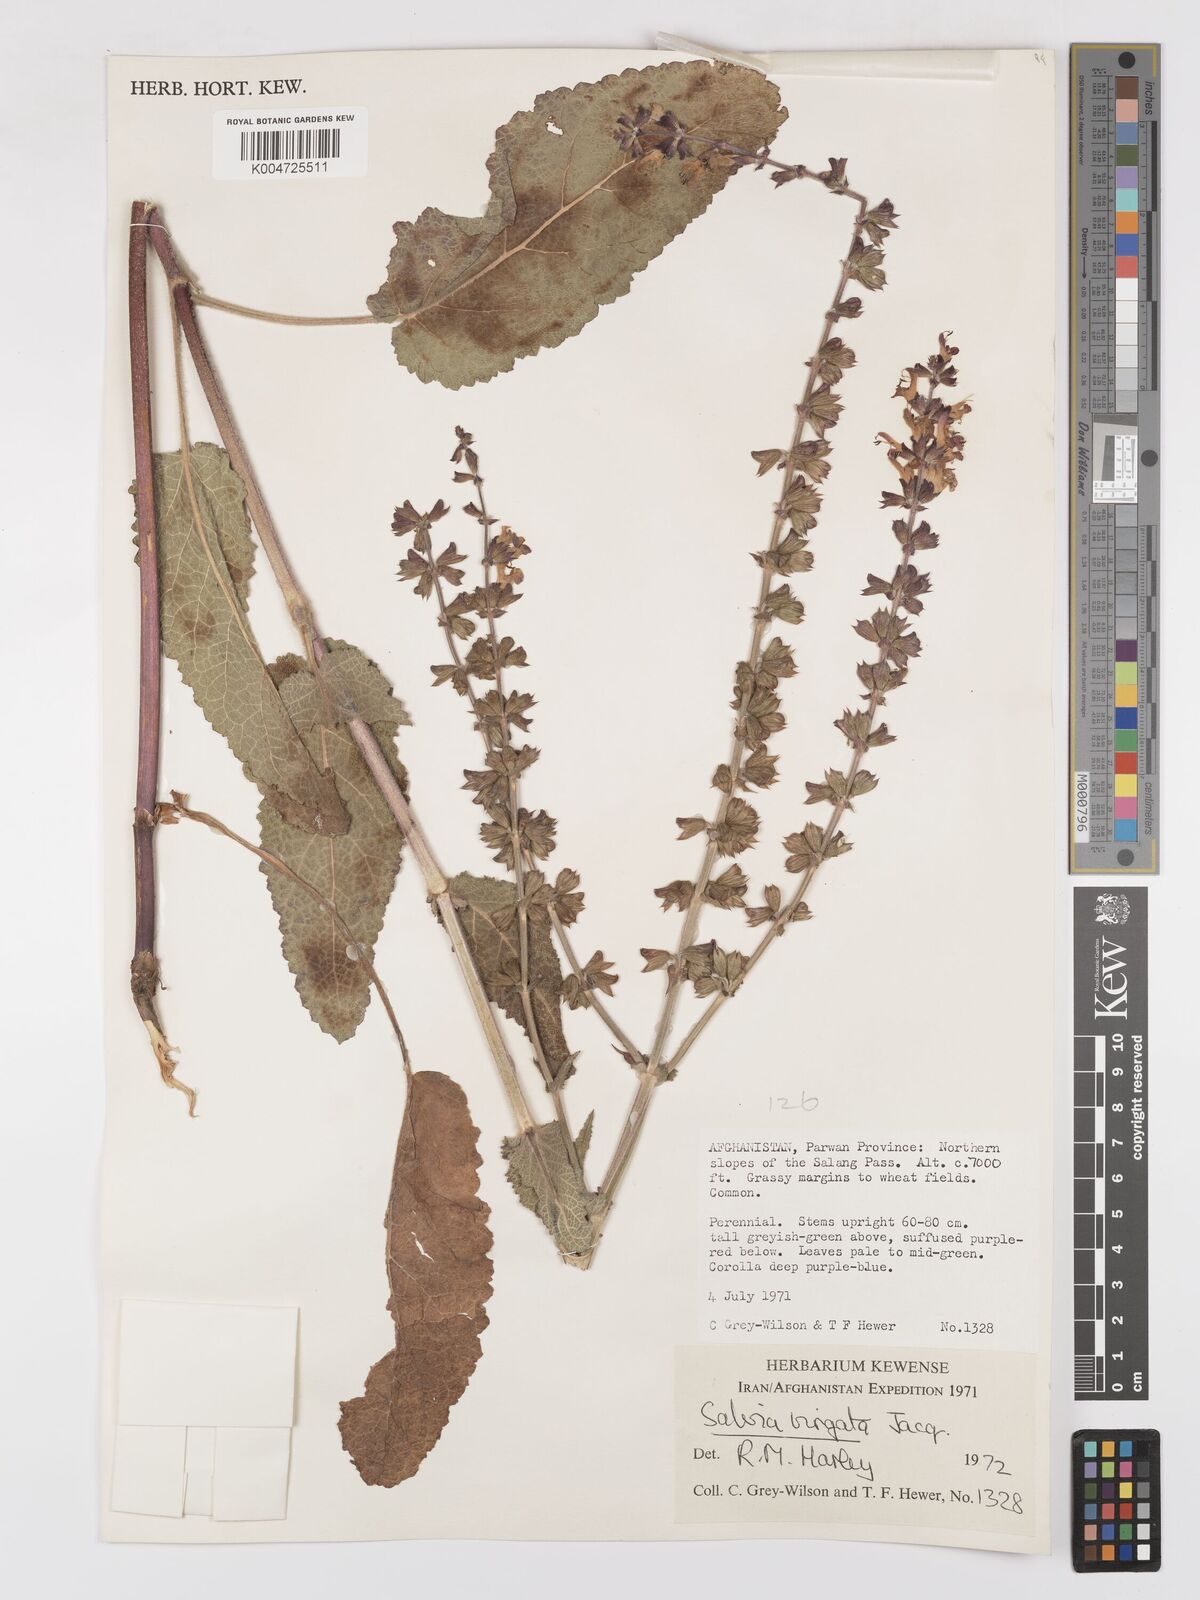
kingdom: Plantae
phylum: Tracheophyta
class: Magnoliopsida
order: Lamiales
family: Lamiaceae
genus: Salvia
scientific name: Salvia
